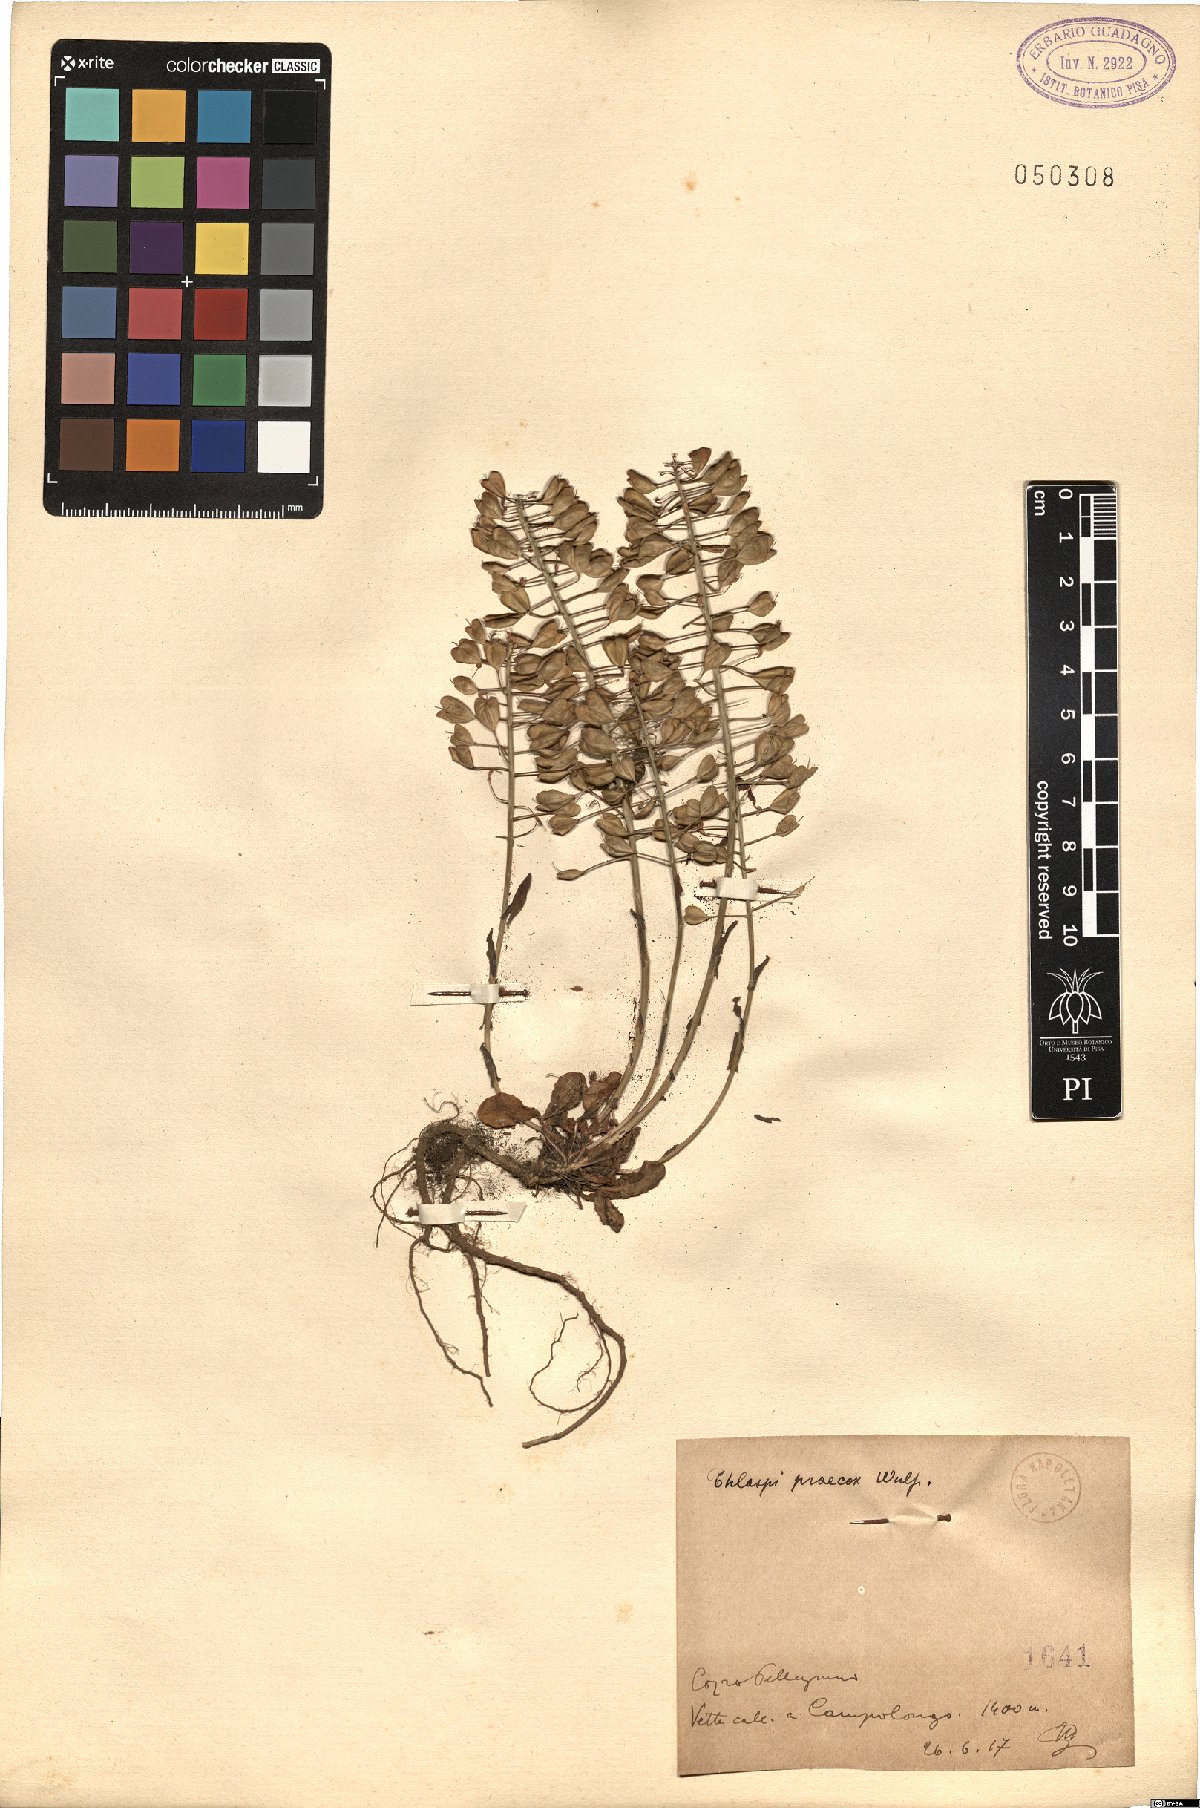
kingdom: Plantae
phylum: Tracheophyta
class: Magnoliopsida
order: Brassicales
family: Brassicaceae
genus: Noccaea
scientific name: Noccaea praecox
